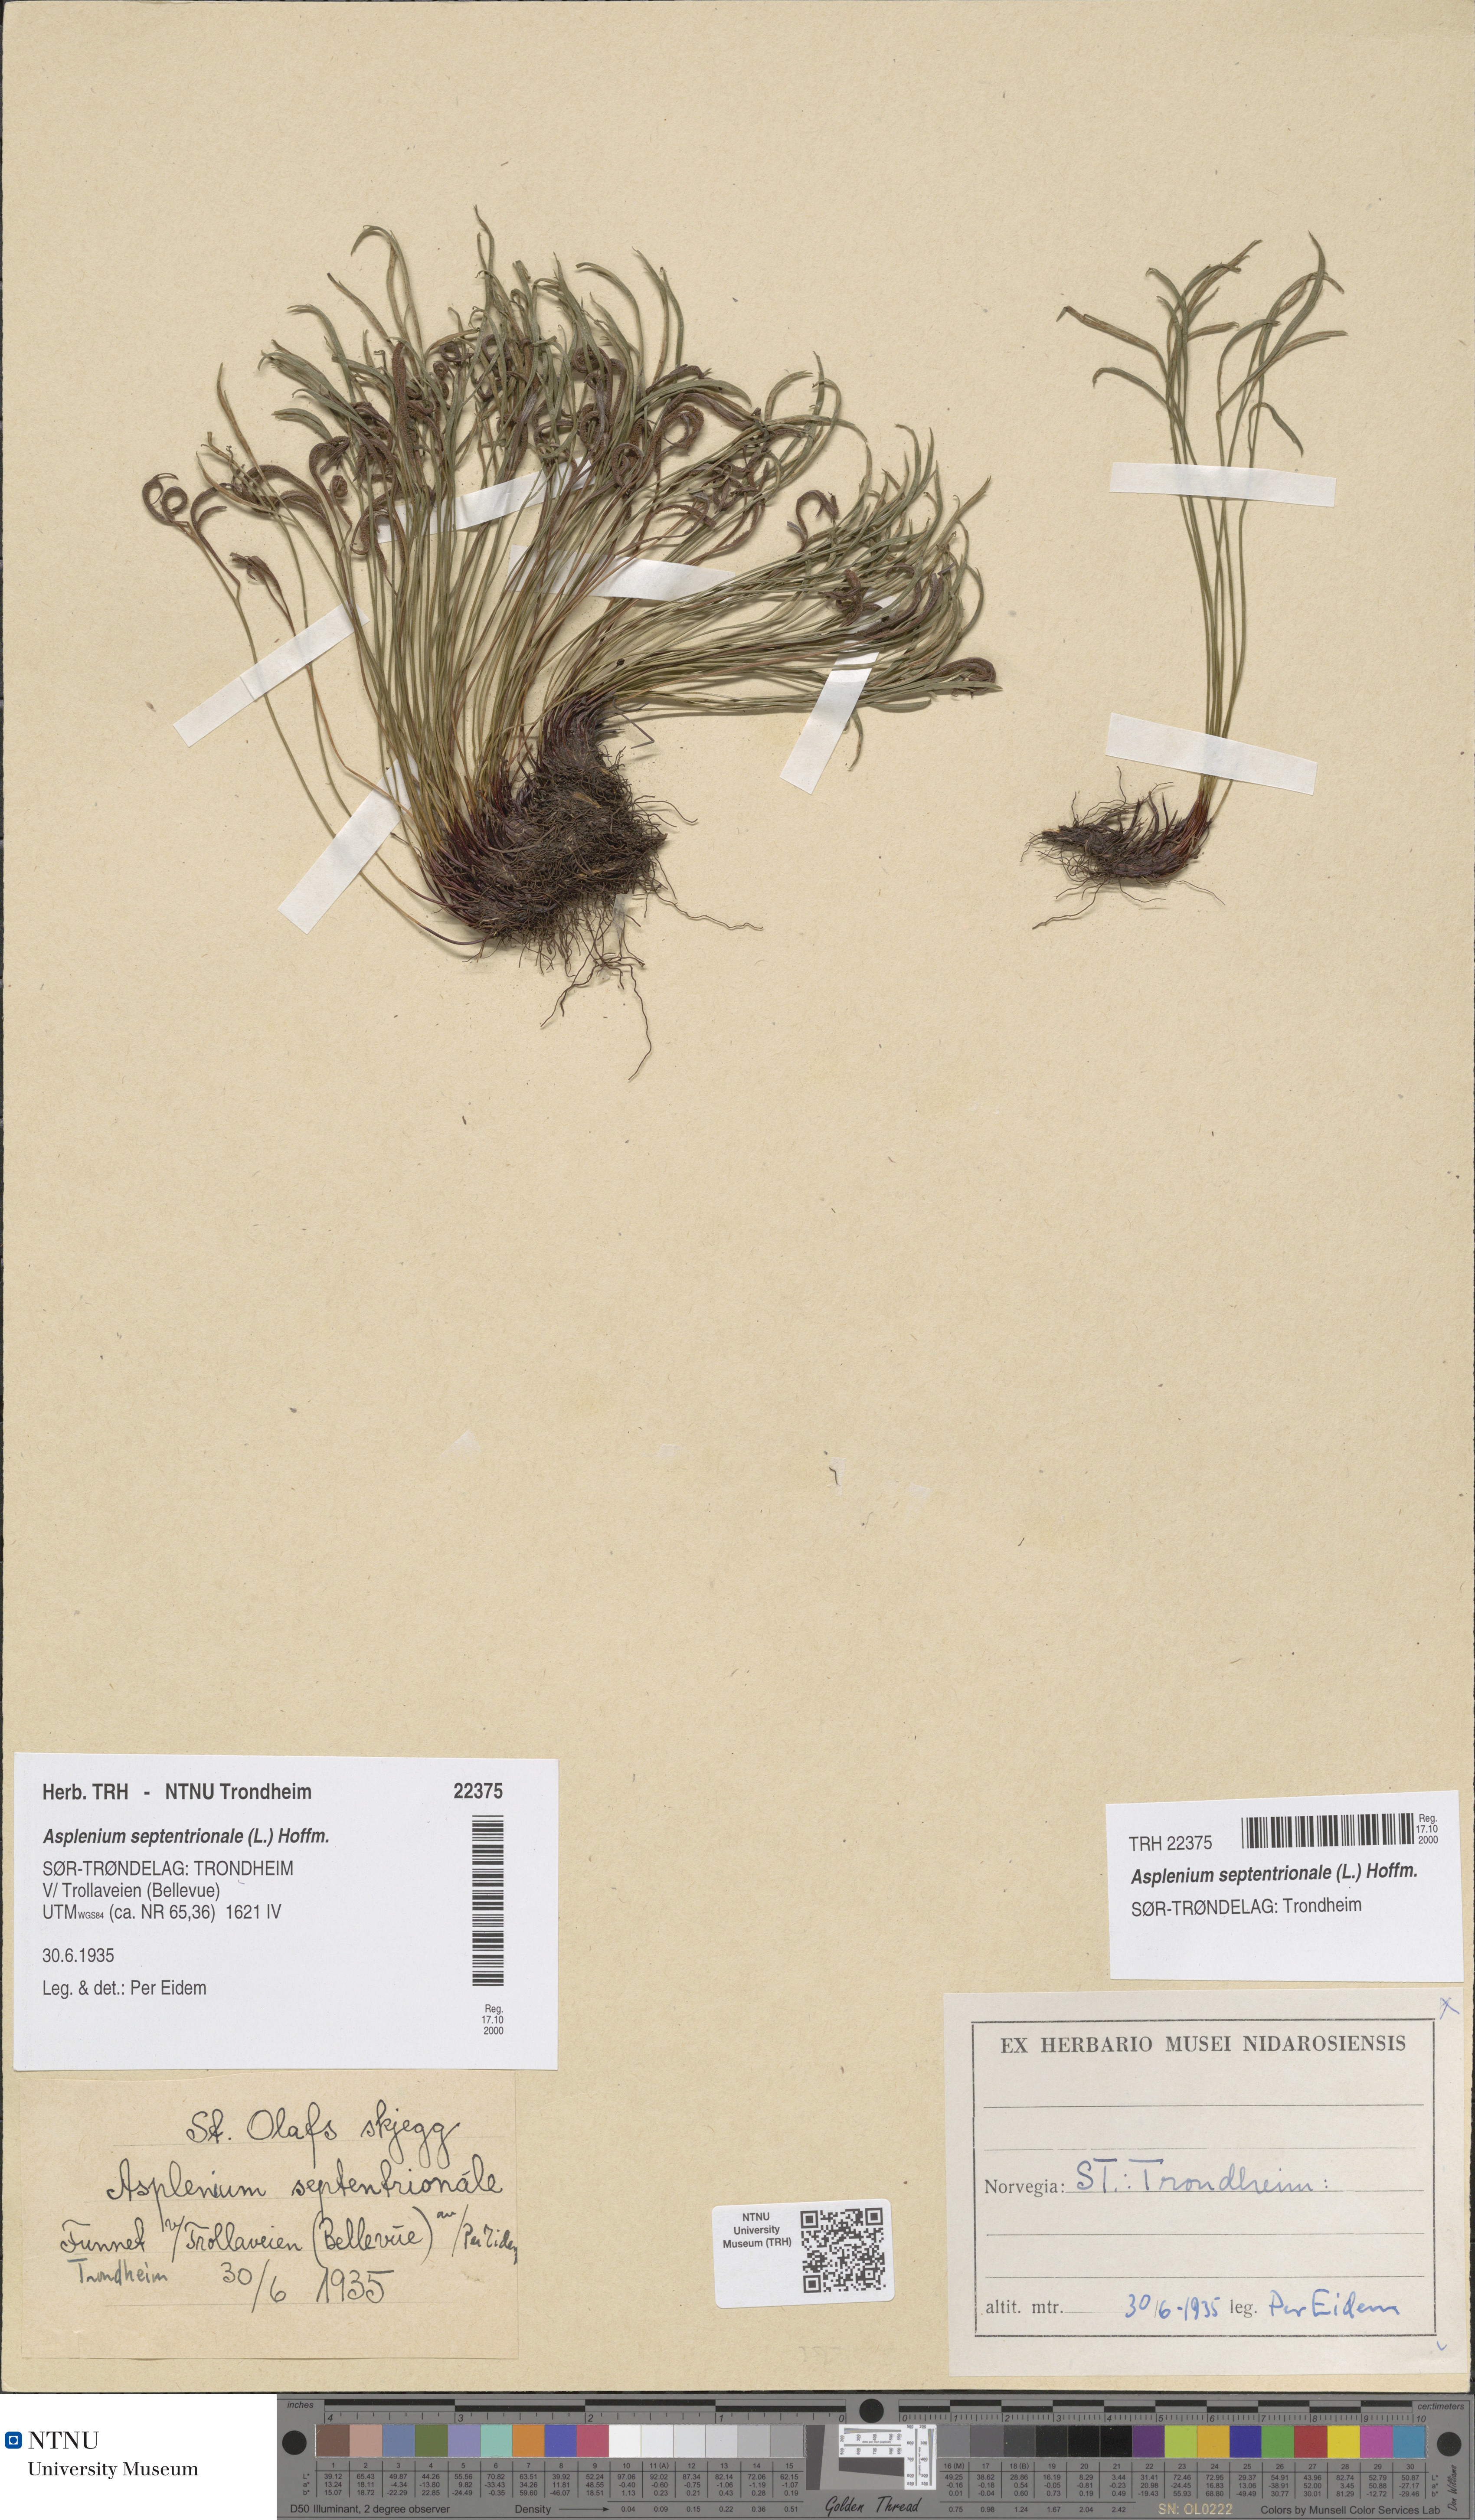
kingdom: Plantae
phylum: Tracheophyta
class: Polypodiopsida
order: Polypodiales
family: Aspleniaceae
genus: Asplenium
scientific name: Asplenium septentrionale
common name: Forked spleenwort
